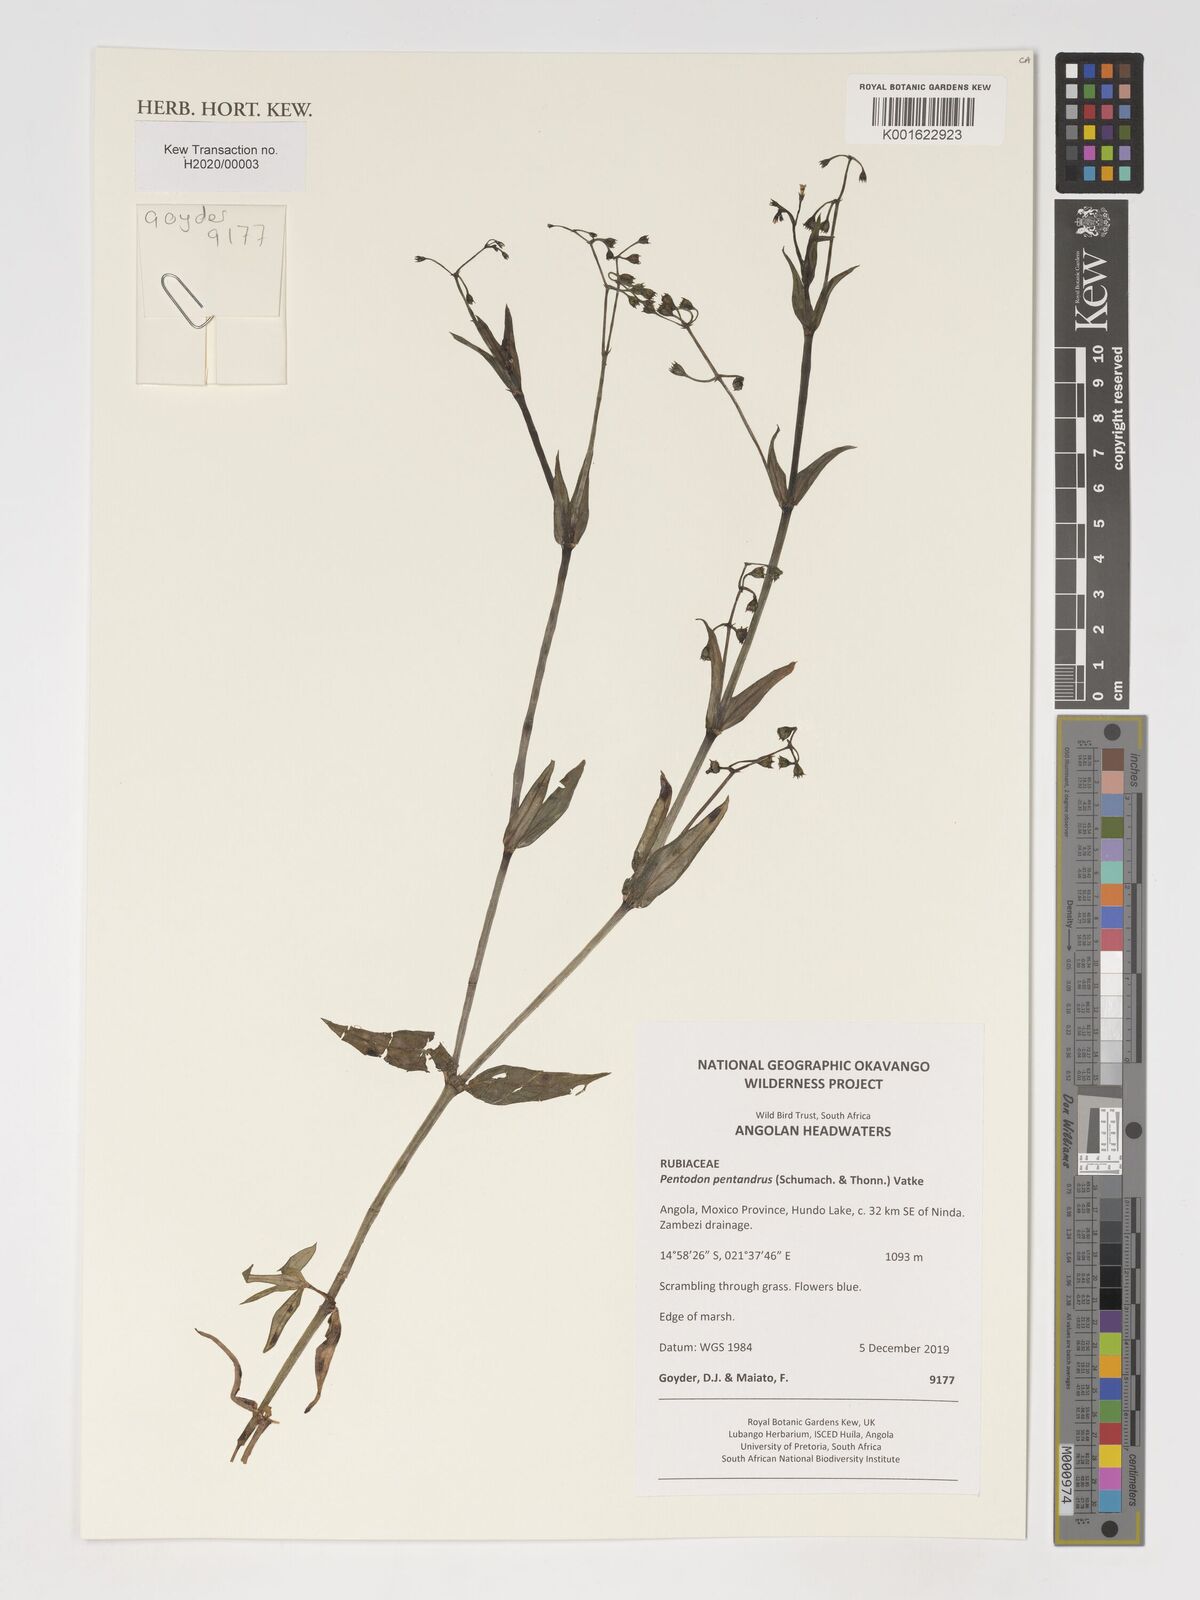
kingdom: Plantae
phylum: Tracheophyta
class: Magnoliopsida
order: Gentianales
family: Rubiaceae
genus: Pentodon
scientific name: Pentodon pentandrus
